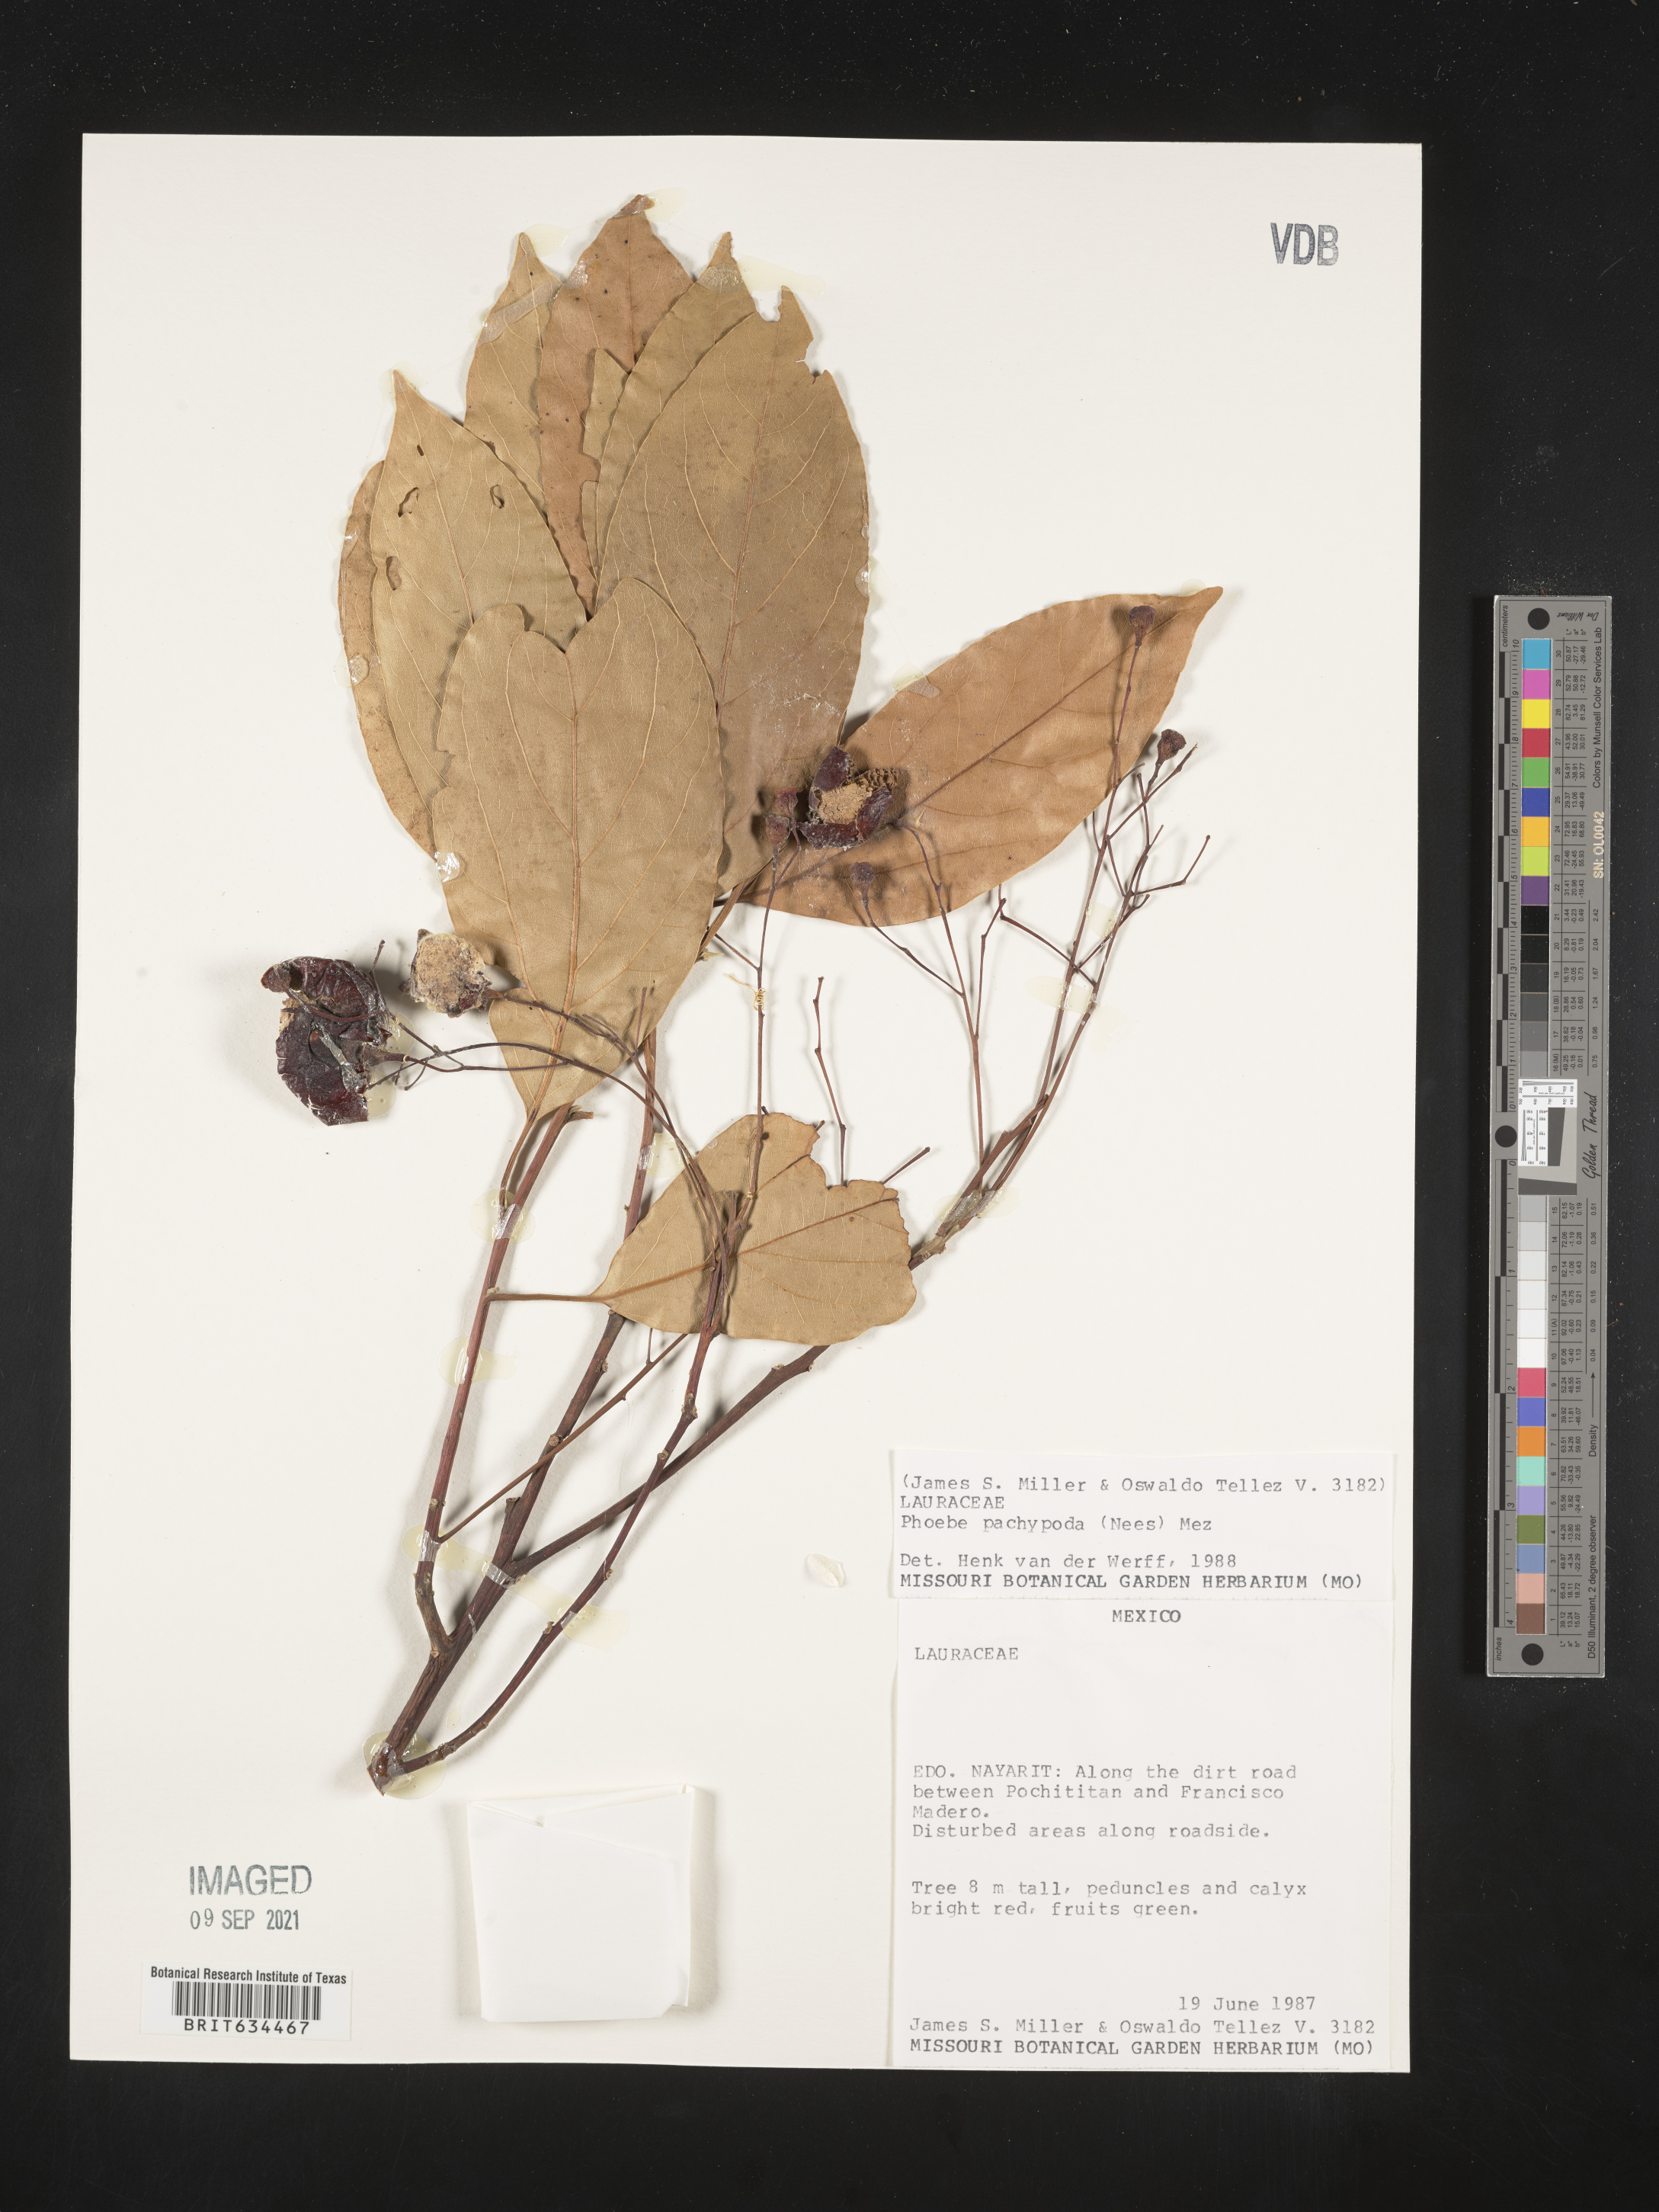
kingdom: Plantae
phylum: Tracheophyta
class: Magnoliopsida
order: Laurales
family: Lauraceae
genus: Phoebe
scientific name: Phoebe
